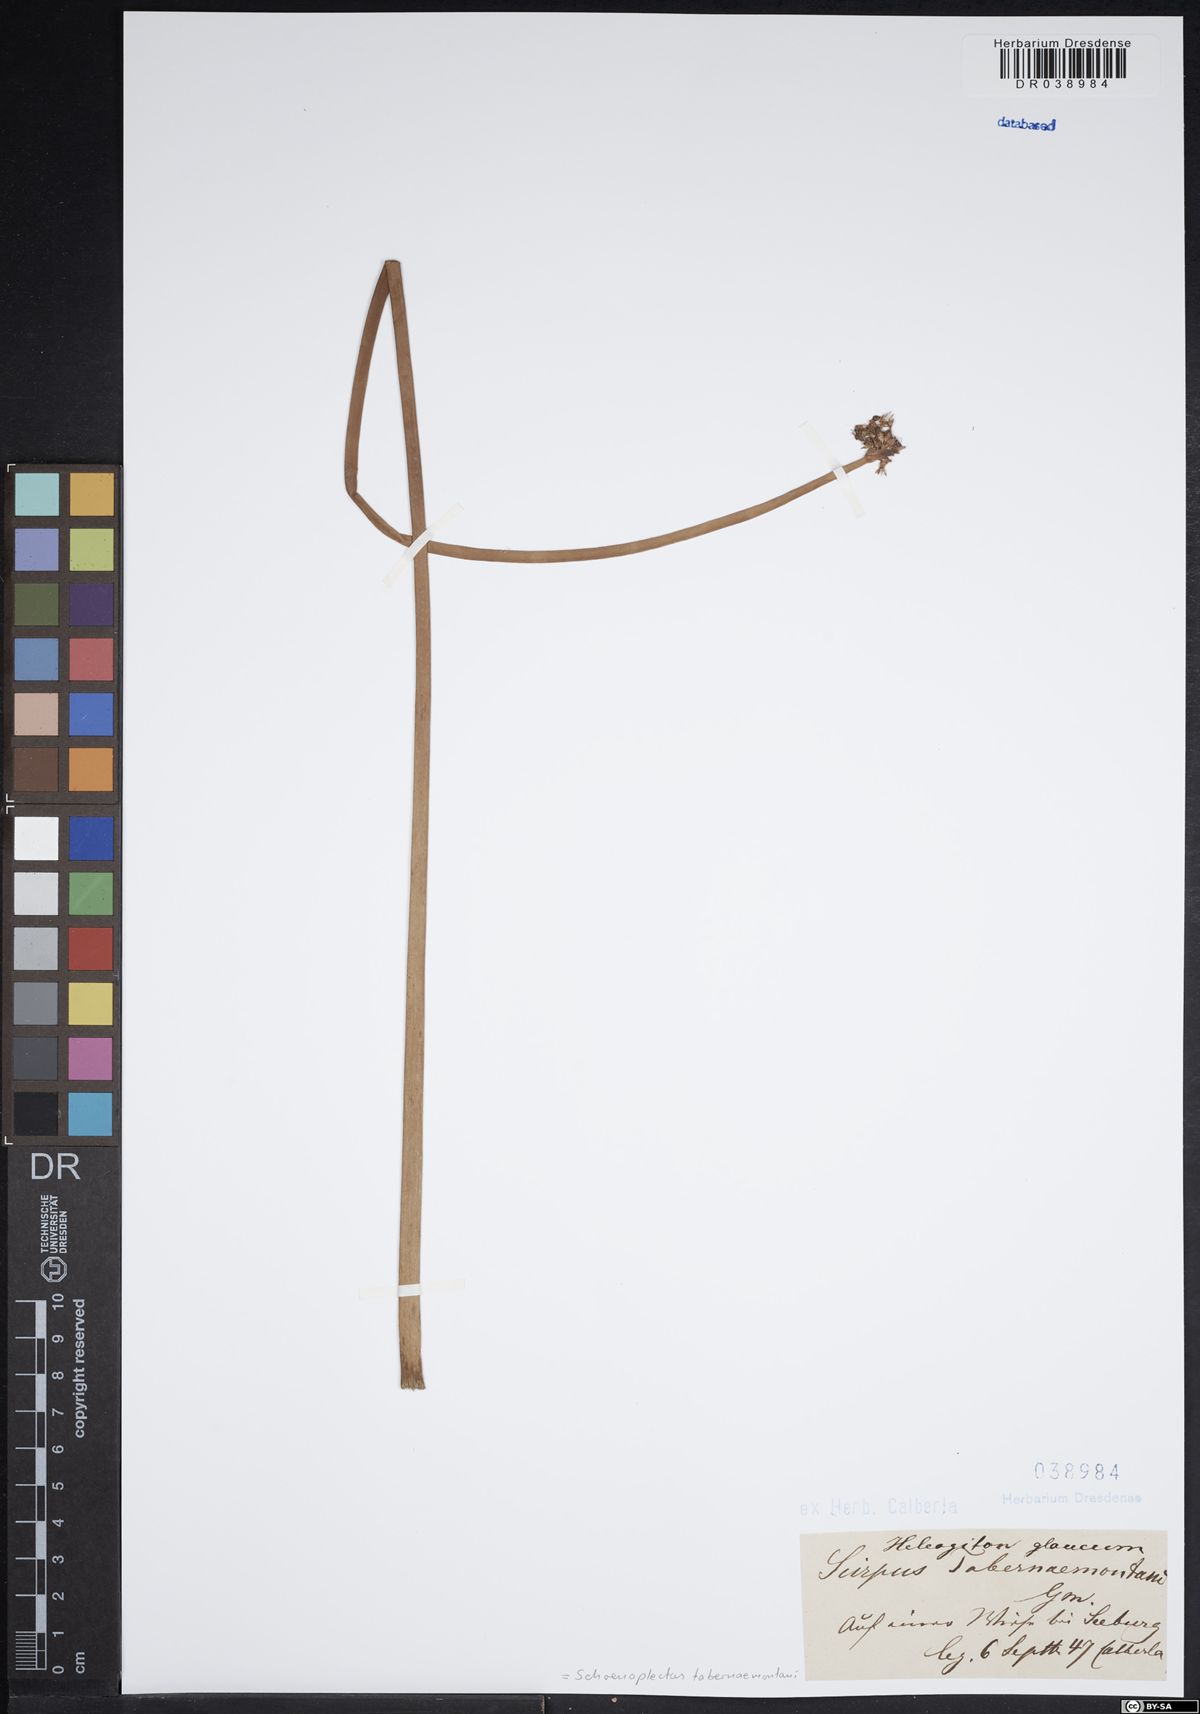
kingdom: Plantae
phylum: Tracheophyta
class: Liliopsida
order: Poales
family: Cyperaceae
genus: Schoenoplectus
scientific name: Schoenoplectus tabernaemontani
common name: Grey club-rush
